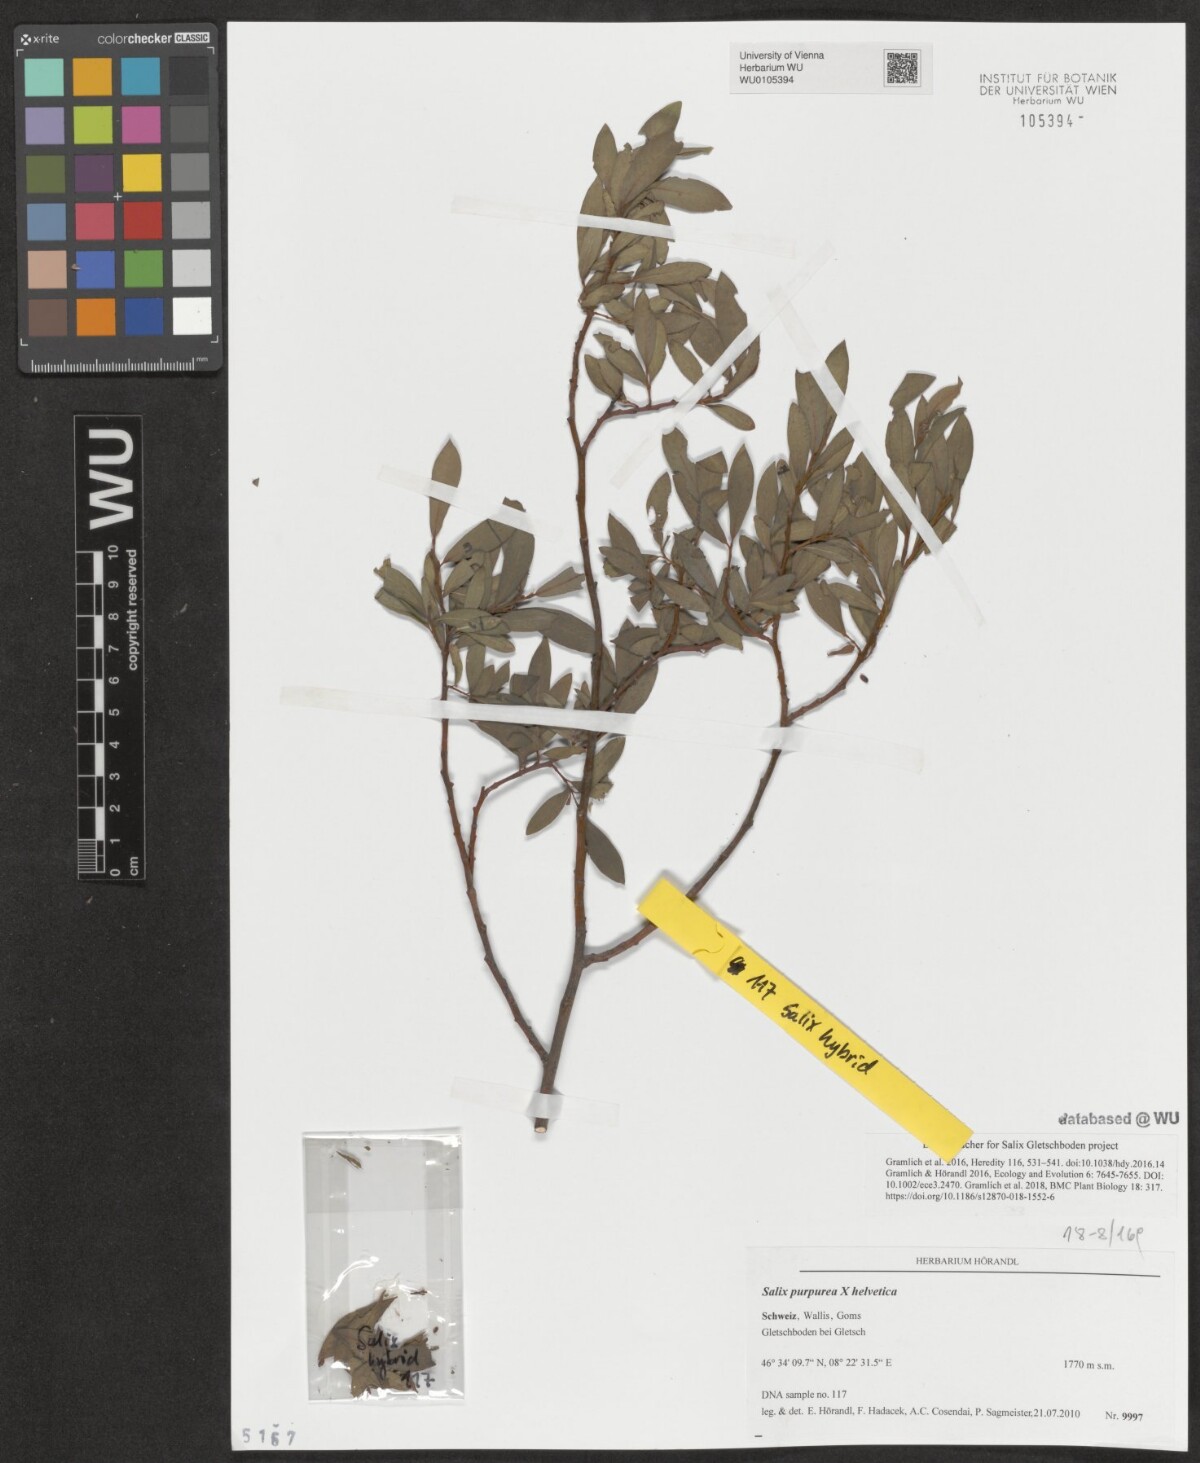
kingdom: Plantae
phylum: Tracheophyta
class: Magnoliopsida
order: Malpighiales
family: Salicaceae
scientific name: Salicaceae
